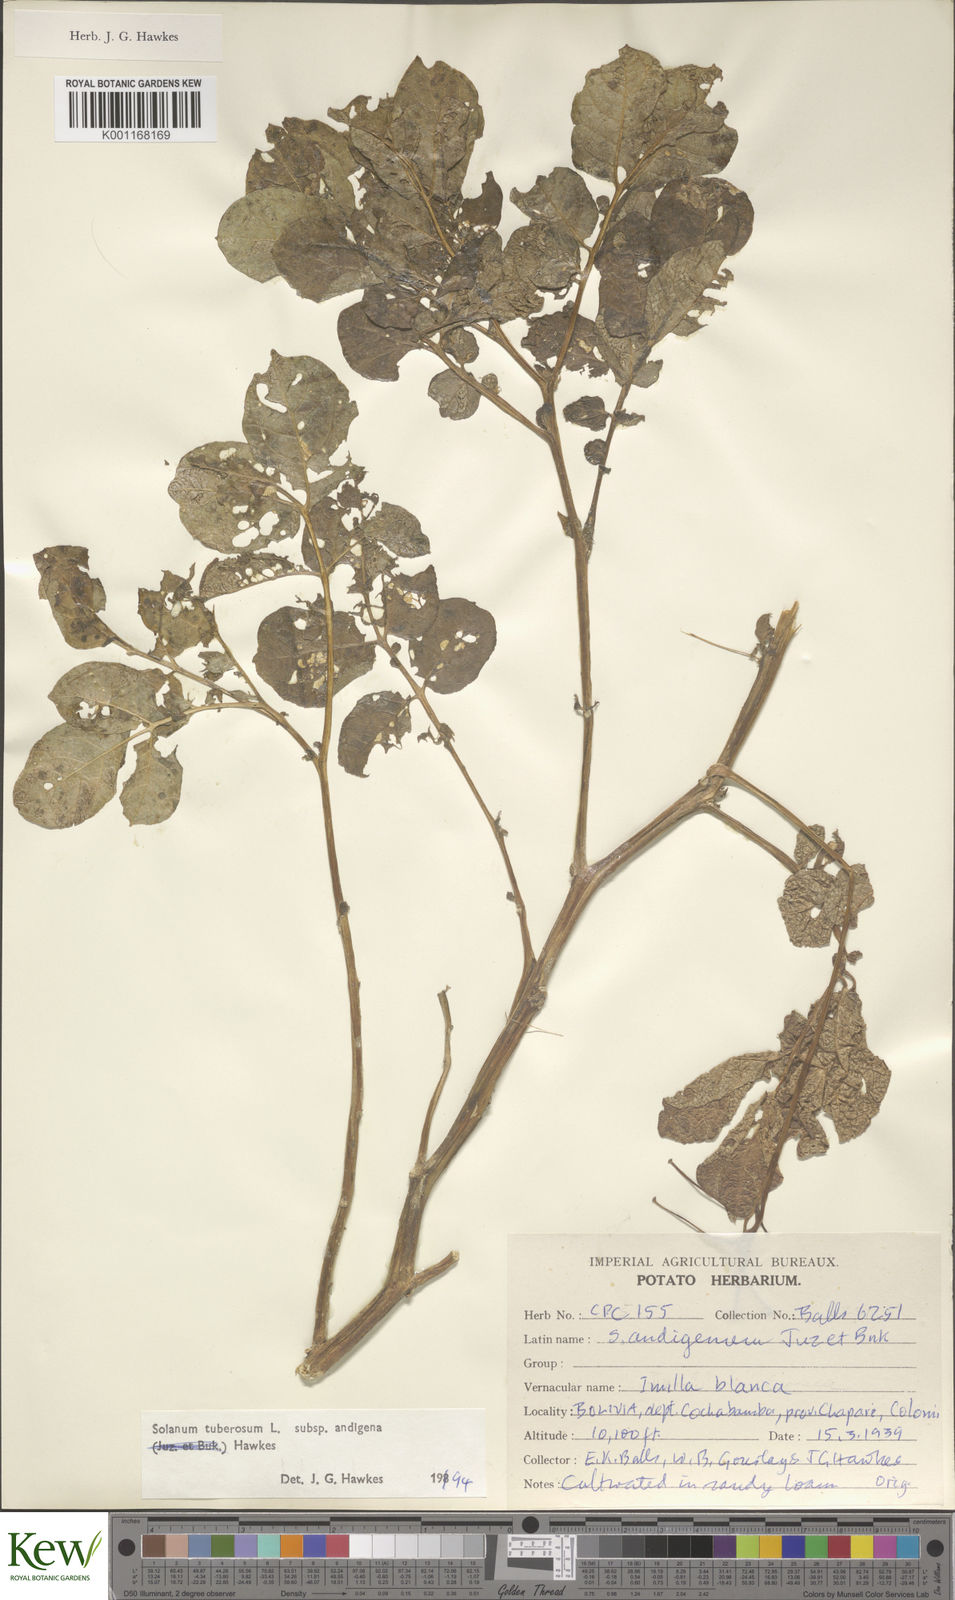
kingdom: Plantae
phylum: Tracheophyta
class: Magnoliopsida
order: Solanales
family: Solanaceae
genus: Solanum
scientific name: Solanum tuberosum
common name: Potato
